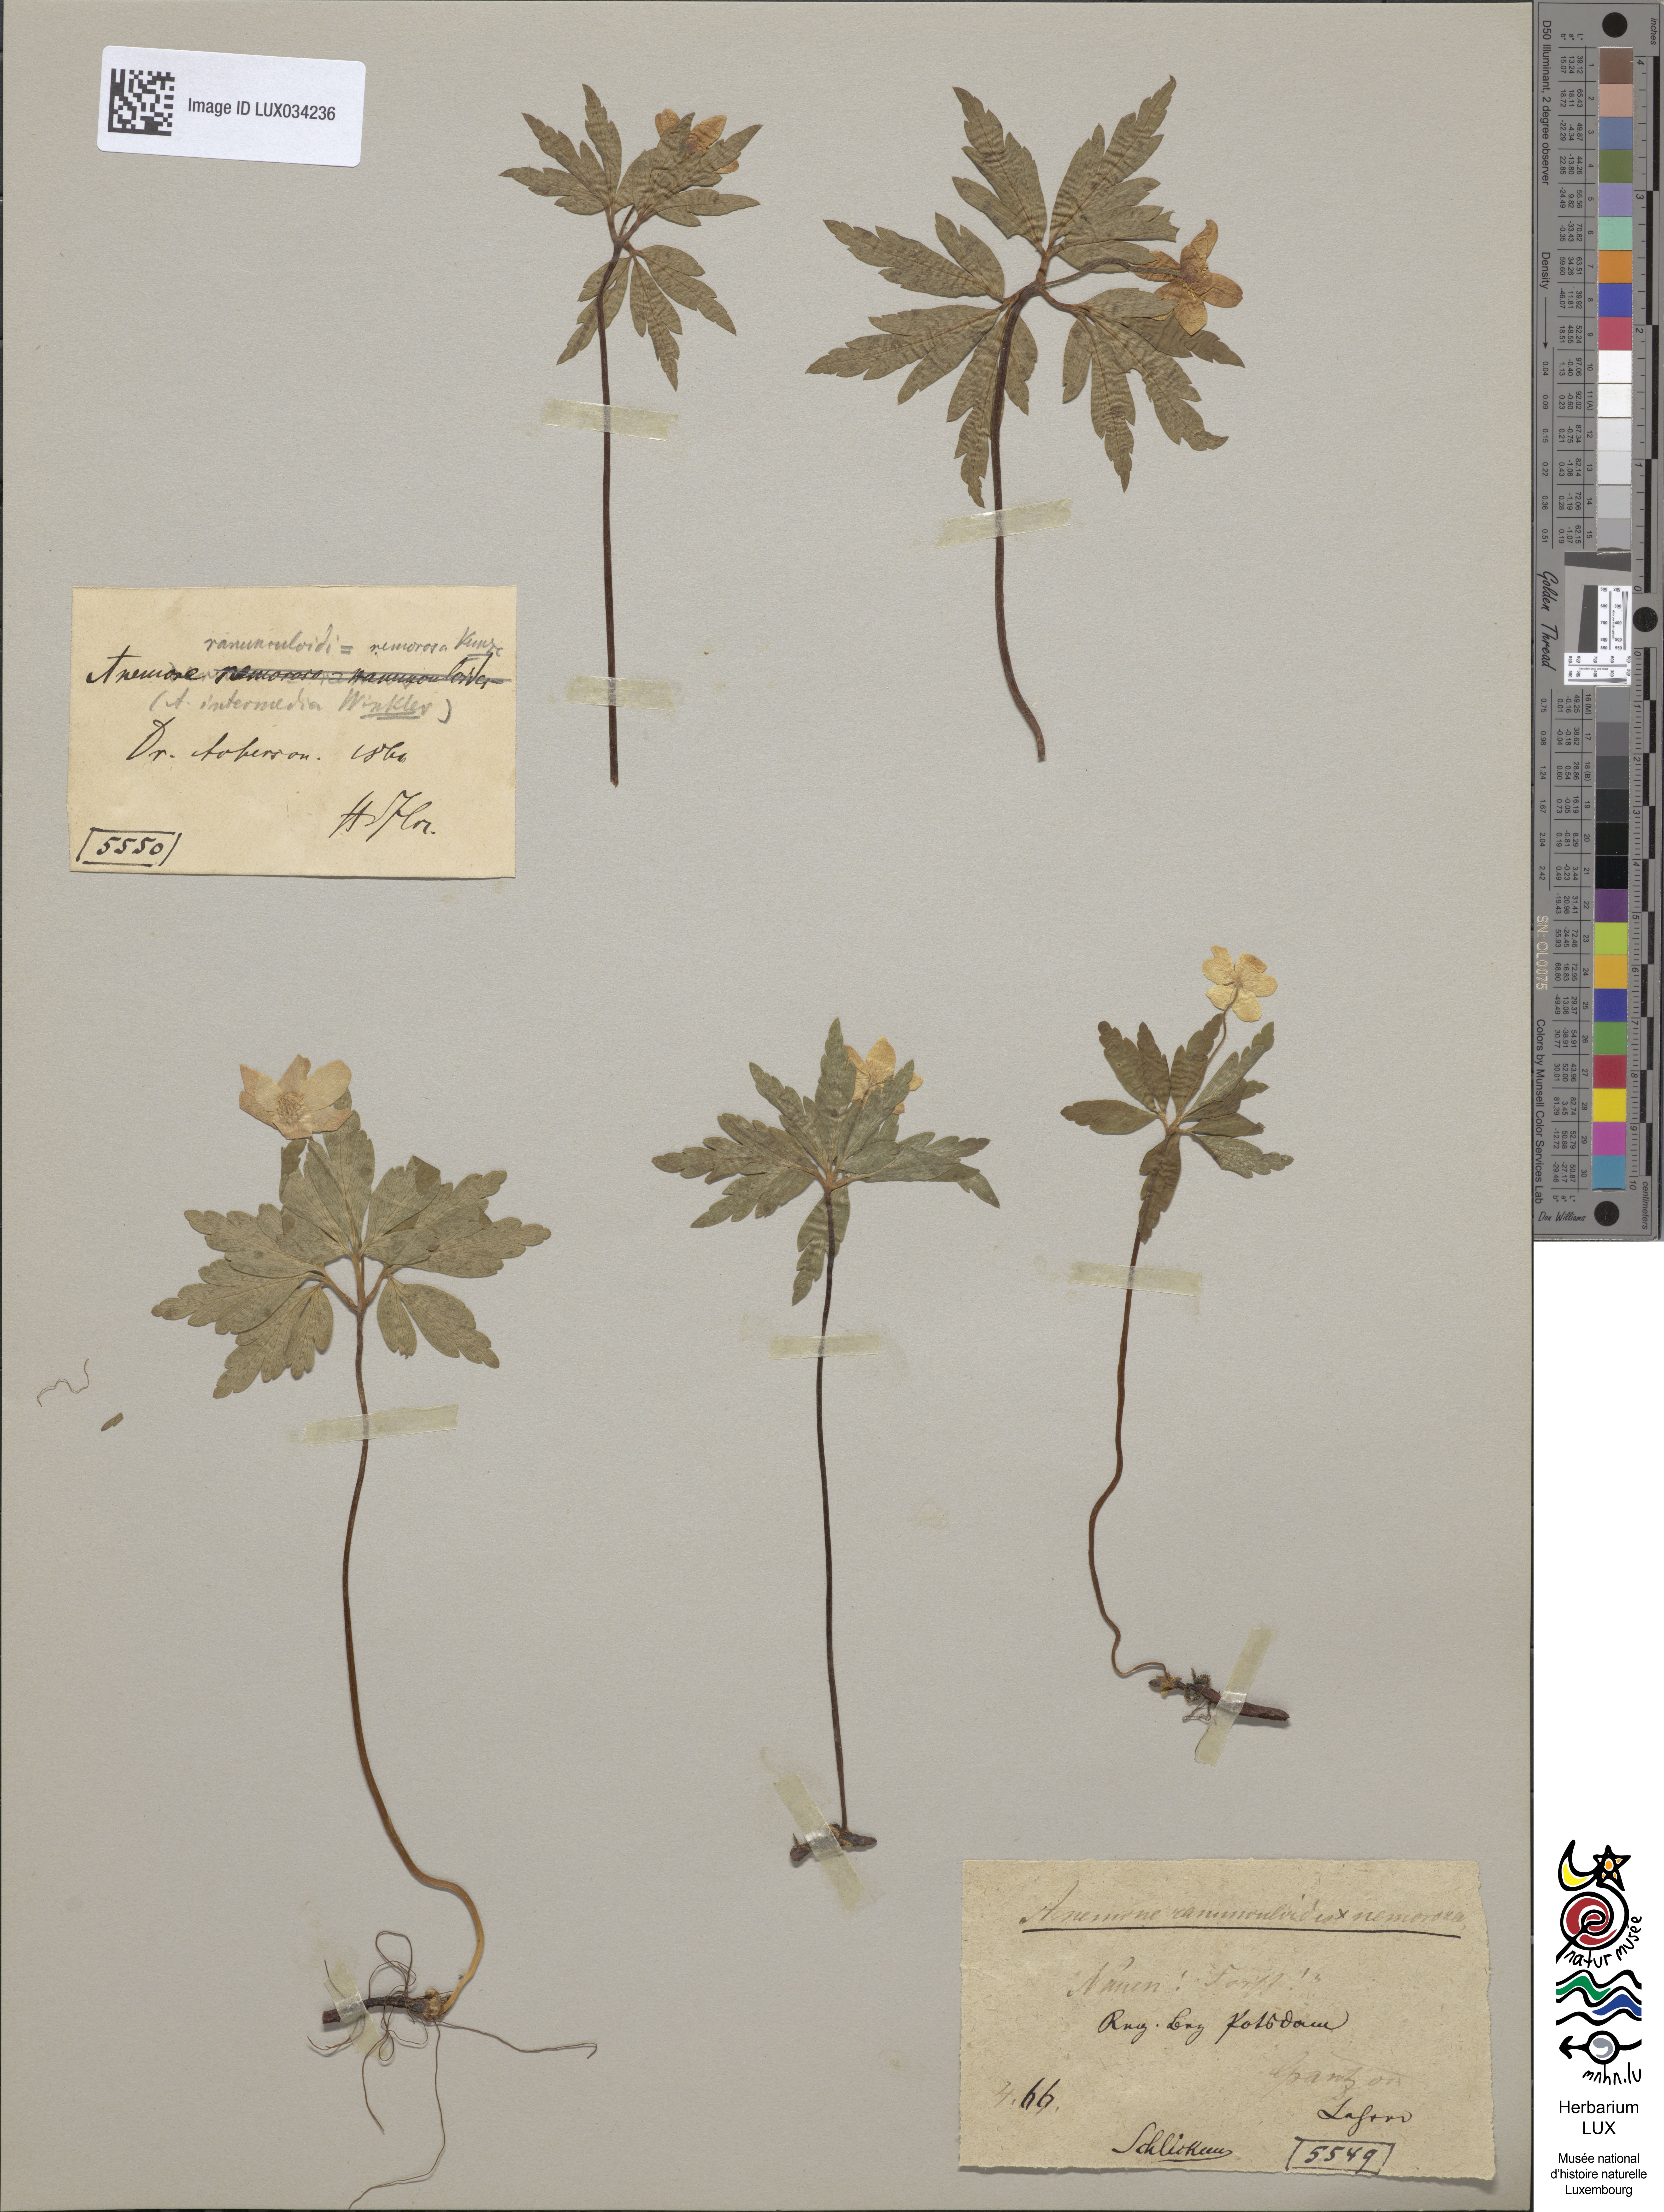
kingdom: Plantae
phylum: Tracheophyta
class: Magnoliopsida
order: Ranunculales
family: Ranunculaceae
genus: Anemone
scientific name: Anemone
